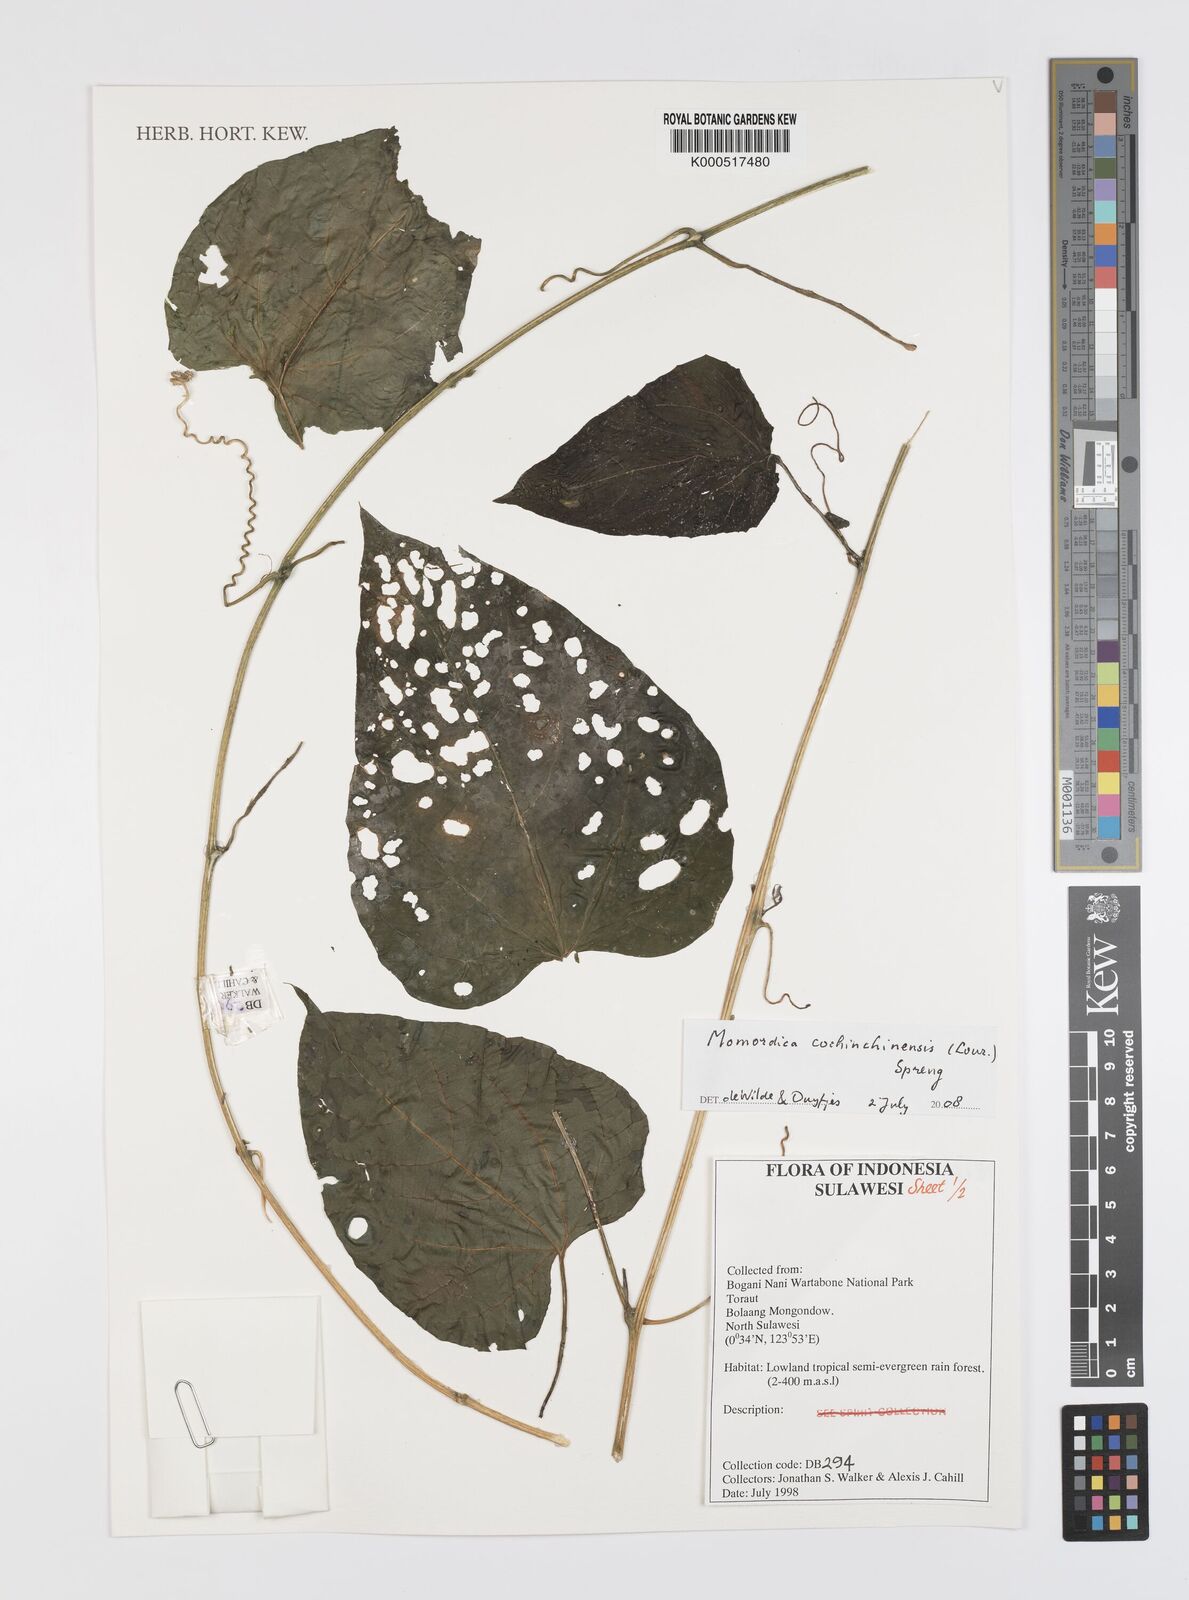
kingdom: Plantae
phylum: Tracheophyta
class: Magnoliopsida
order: Cucurbitales
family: Cucurbitaceae
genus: Momordica
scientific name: Momordica cochinchinensis
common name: Chinese bitter-cucumber
